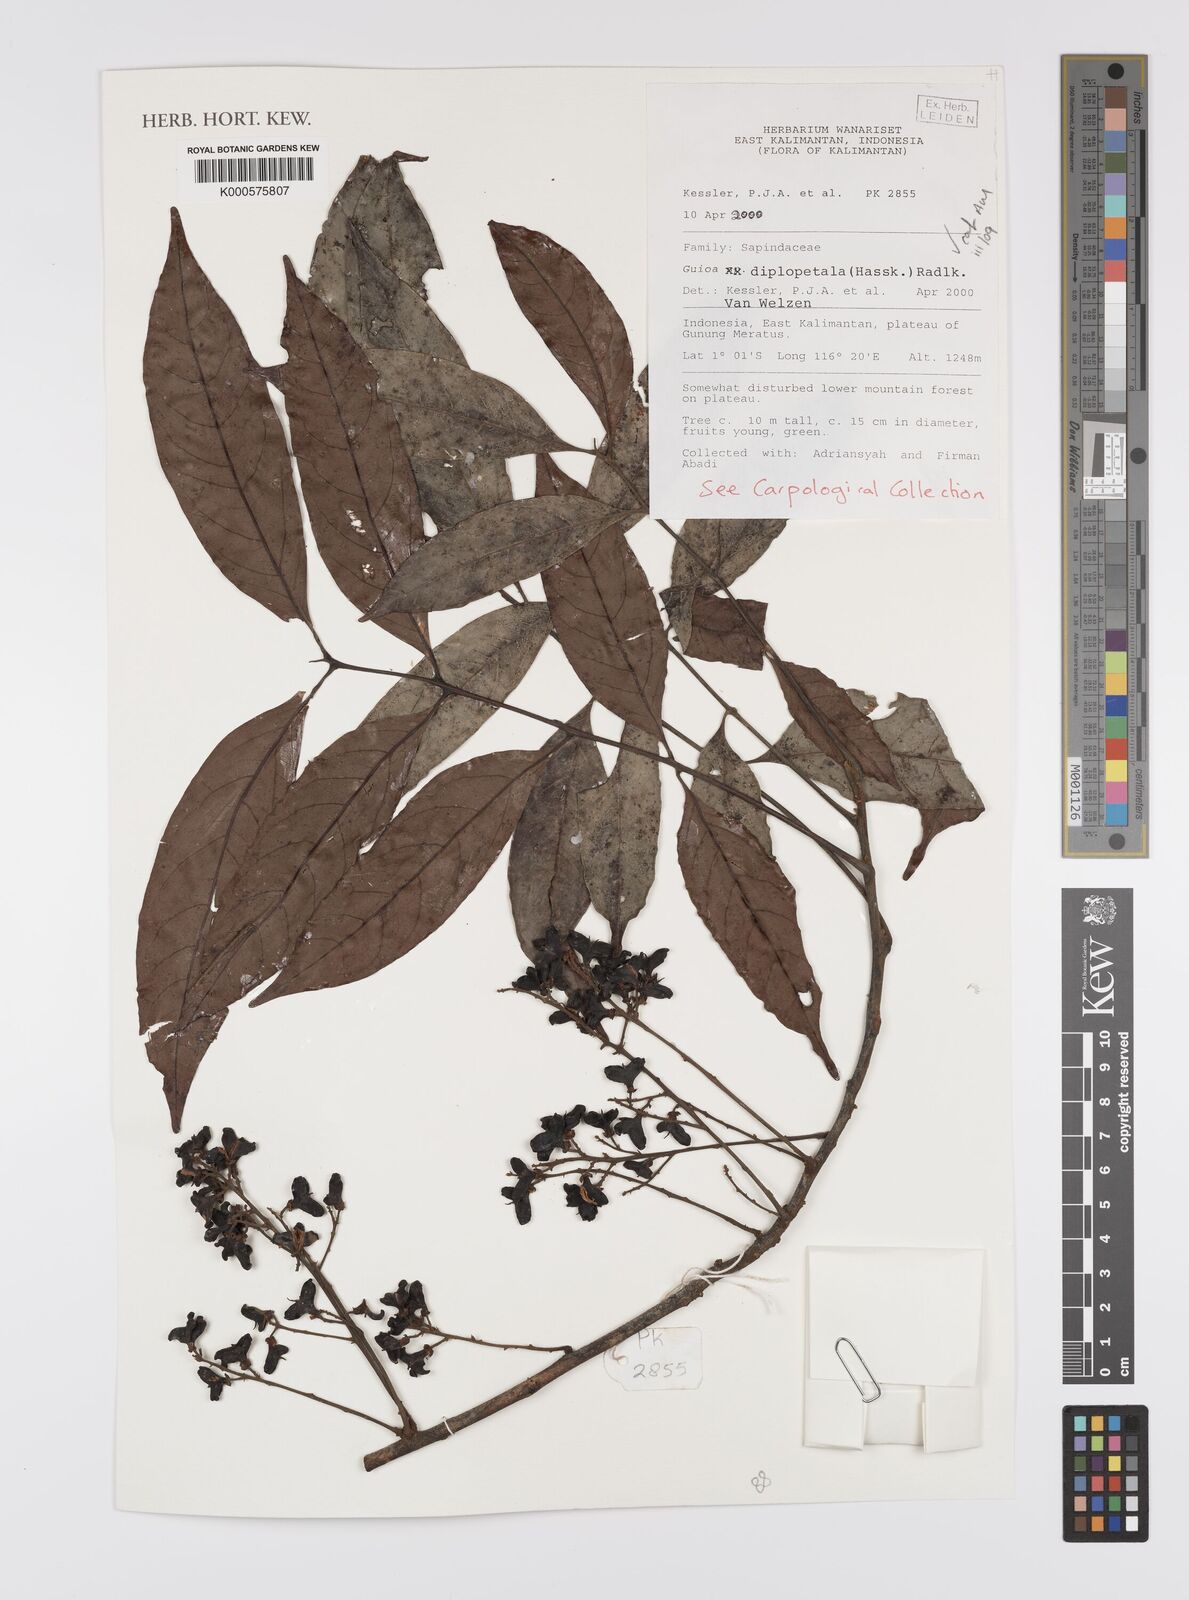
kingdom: Plantae
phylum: Tracheophyta
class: Magnoliopsida
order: Sapindales
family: Sapindaceae
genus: Guioa
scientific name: Guioa diplopetala
